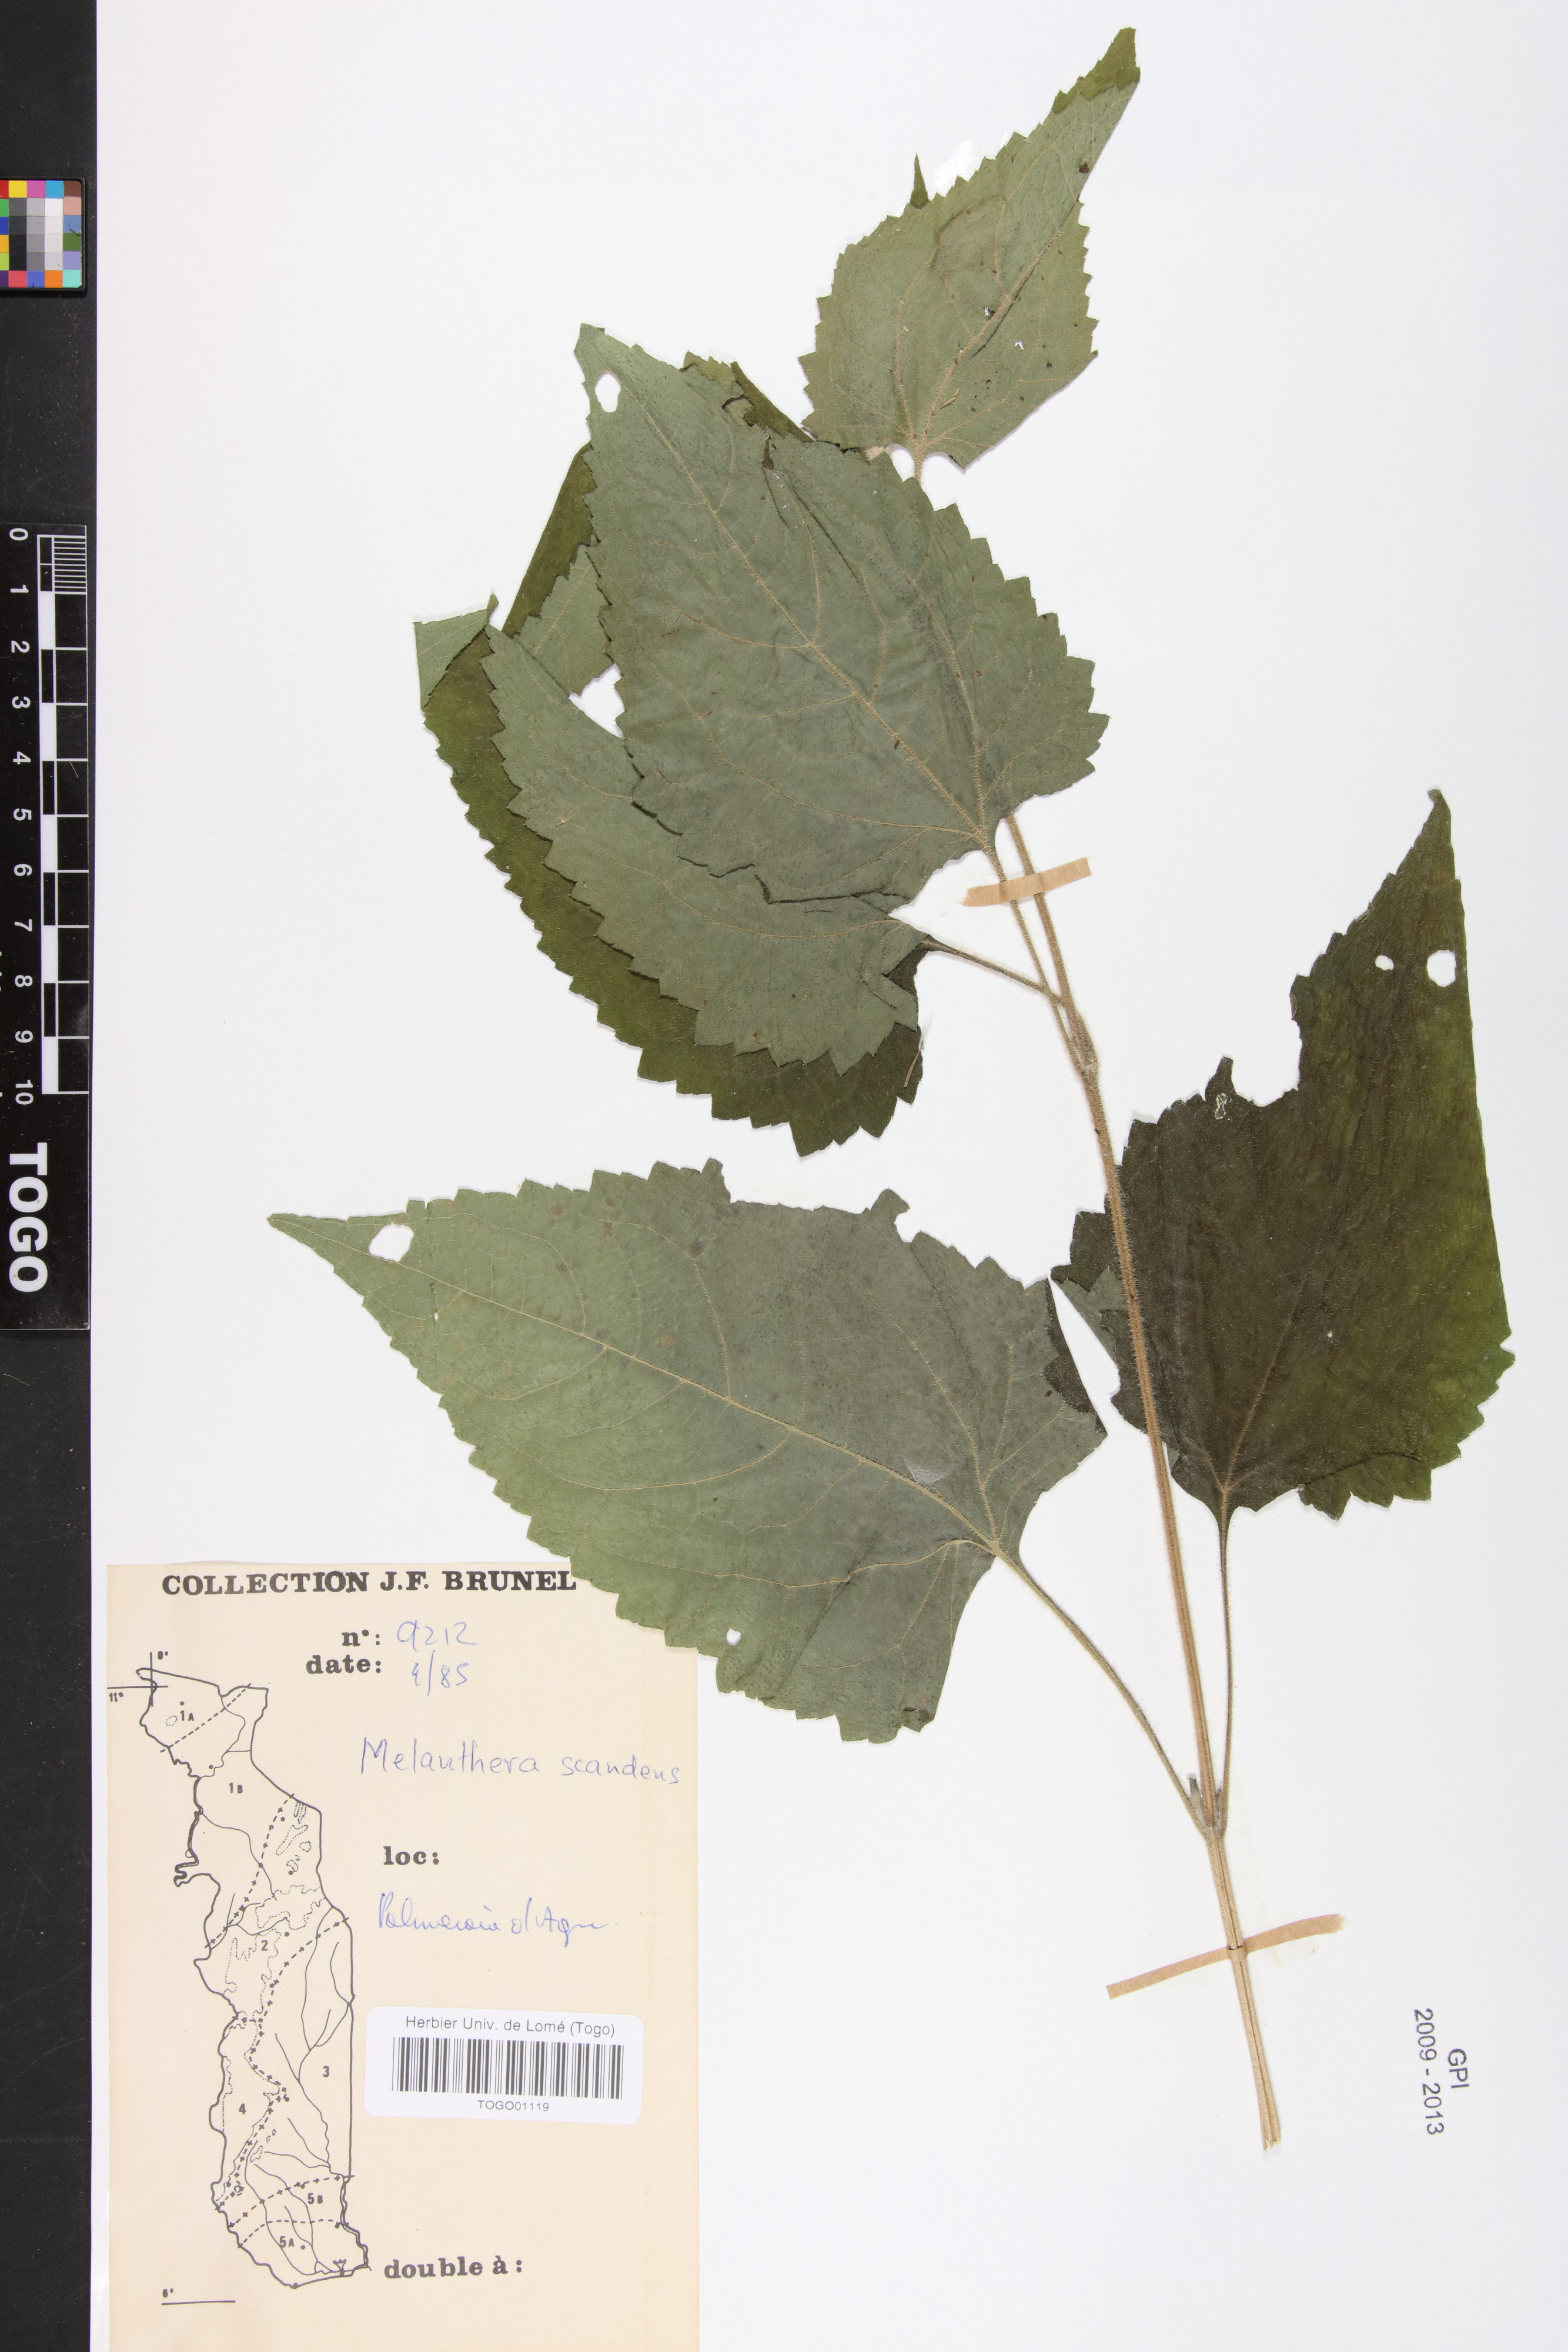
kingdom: Plantae
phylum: Tracheophyta
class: Magnoliopsida
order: Asterales
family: Asteraceae
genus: Melanthera
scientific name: Melanthera scandens
